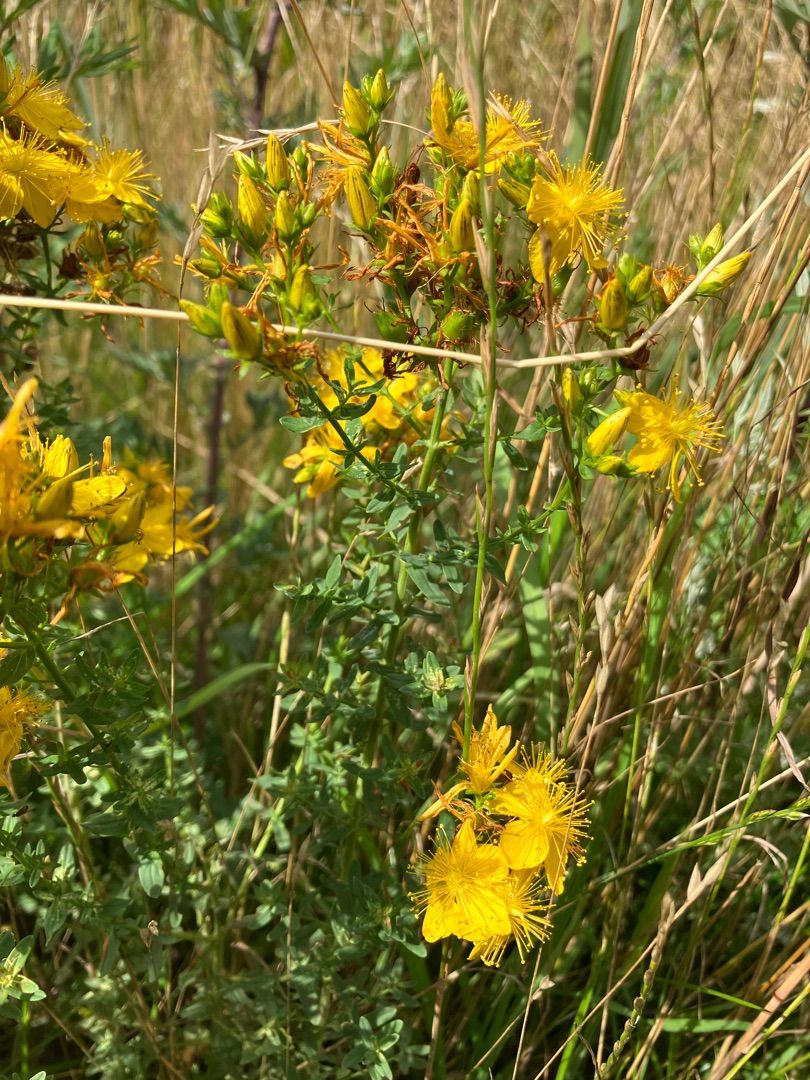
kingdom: Plantae
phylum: Tracheophyta
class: Magnoliopsida
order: Malpighiales
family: Hypericaceae
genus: Hypericum
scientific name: Hypericum perforatum
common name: Prikbladet perikon
